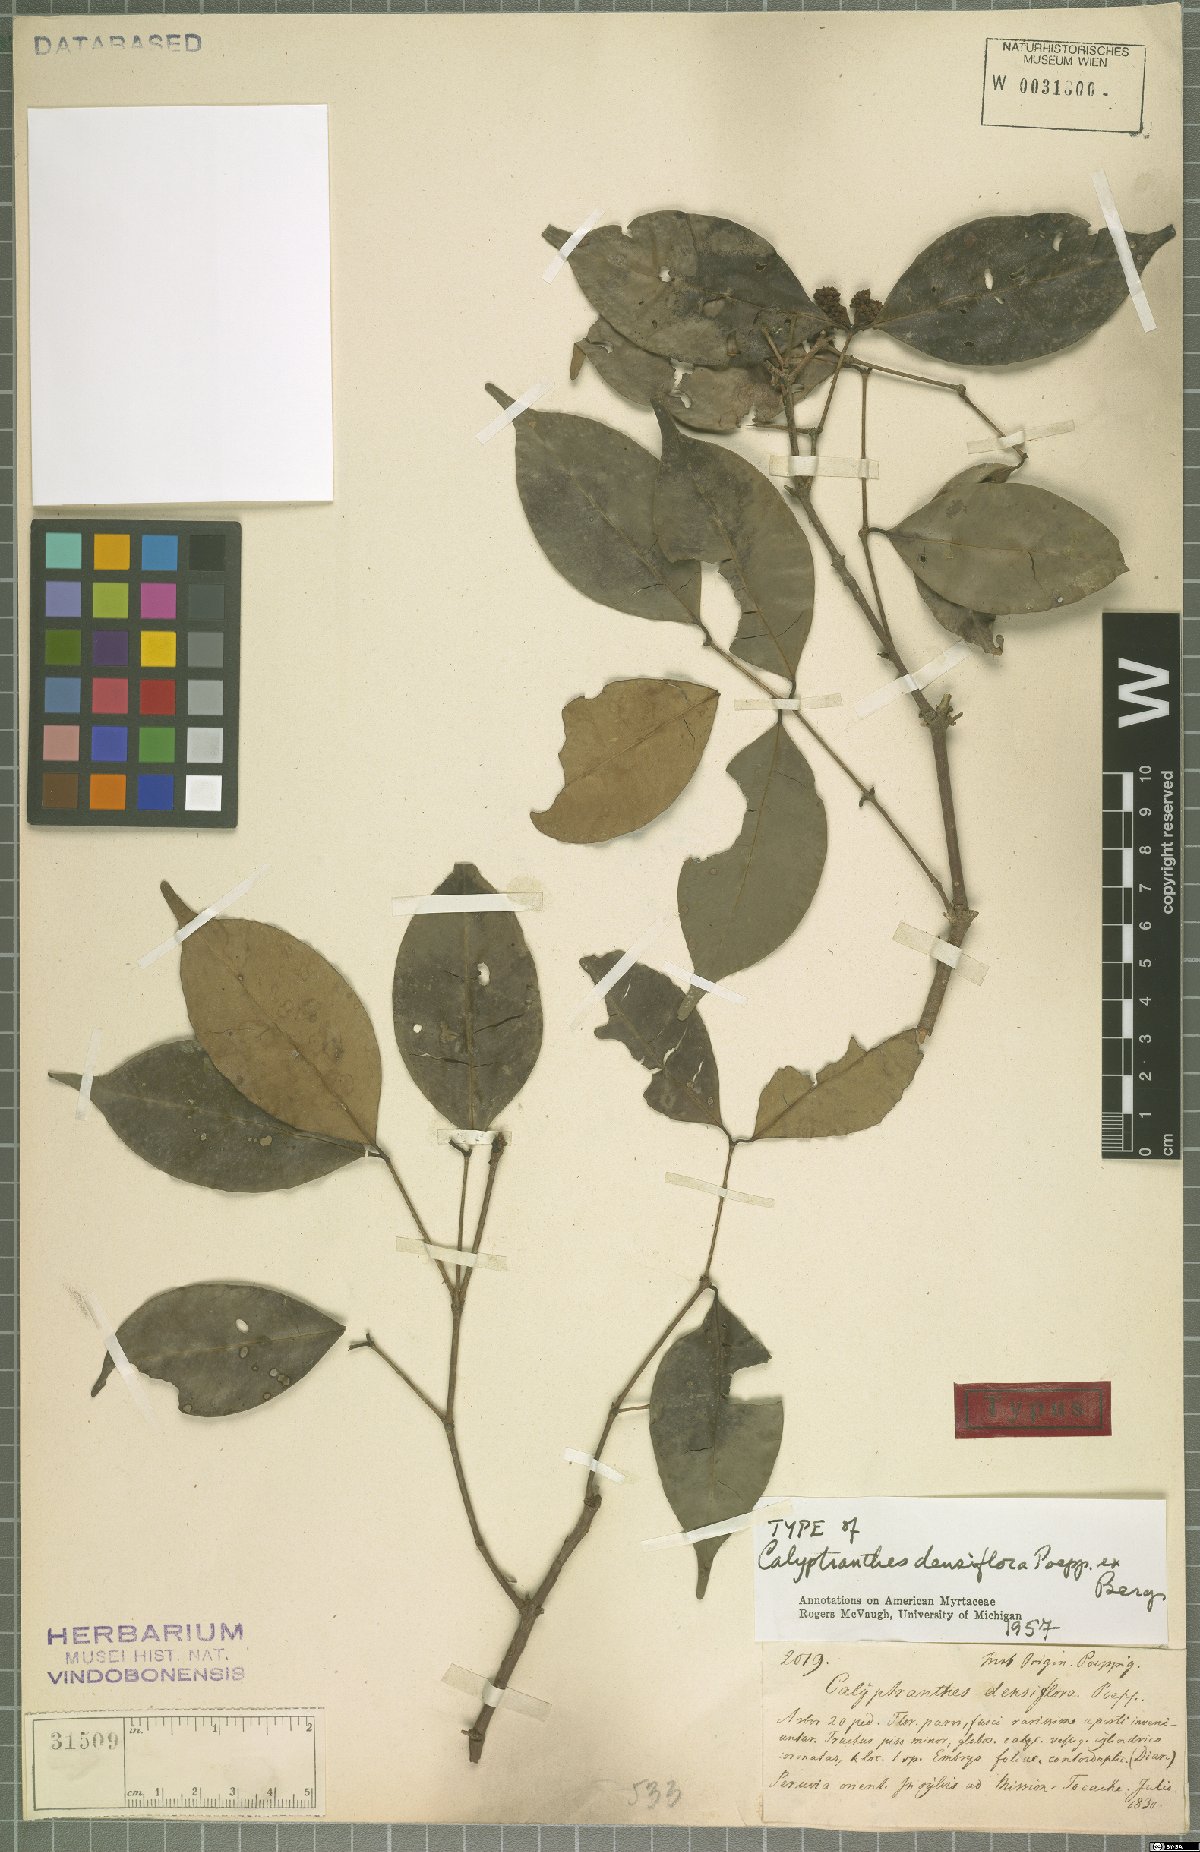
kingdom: Plantae
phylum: Tracheophyta
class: Magnoliopsida
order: Myrtales
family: Myrtaceae
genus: Myrcia
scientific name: Myrcia densiflora
